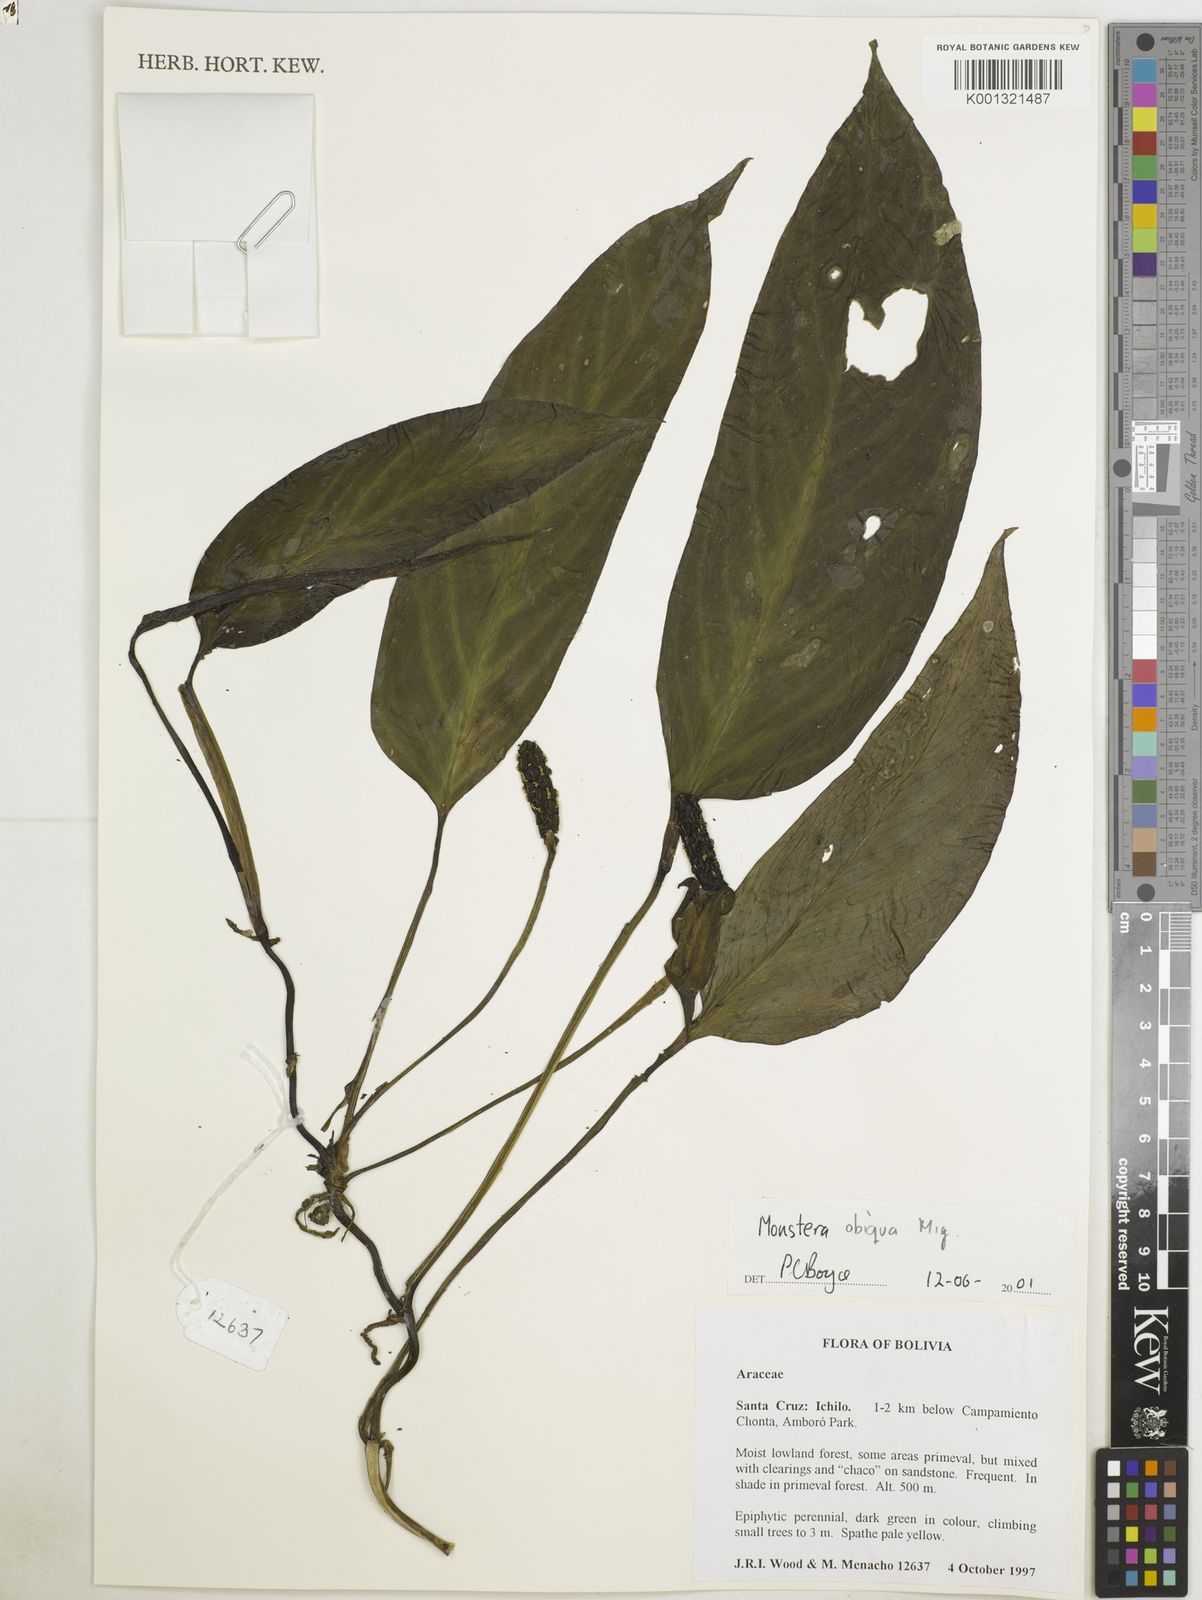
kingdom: Plantae
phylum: Tracheophyta
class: Liliopsida
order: Alismatales
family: Araceae
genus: Monstera
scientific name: Monstera obliqua
